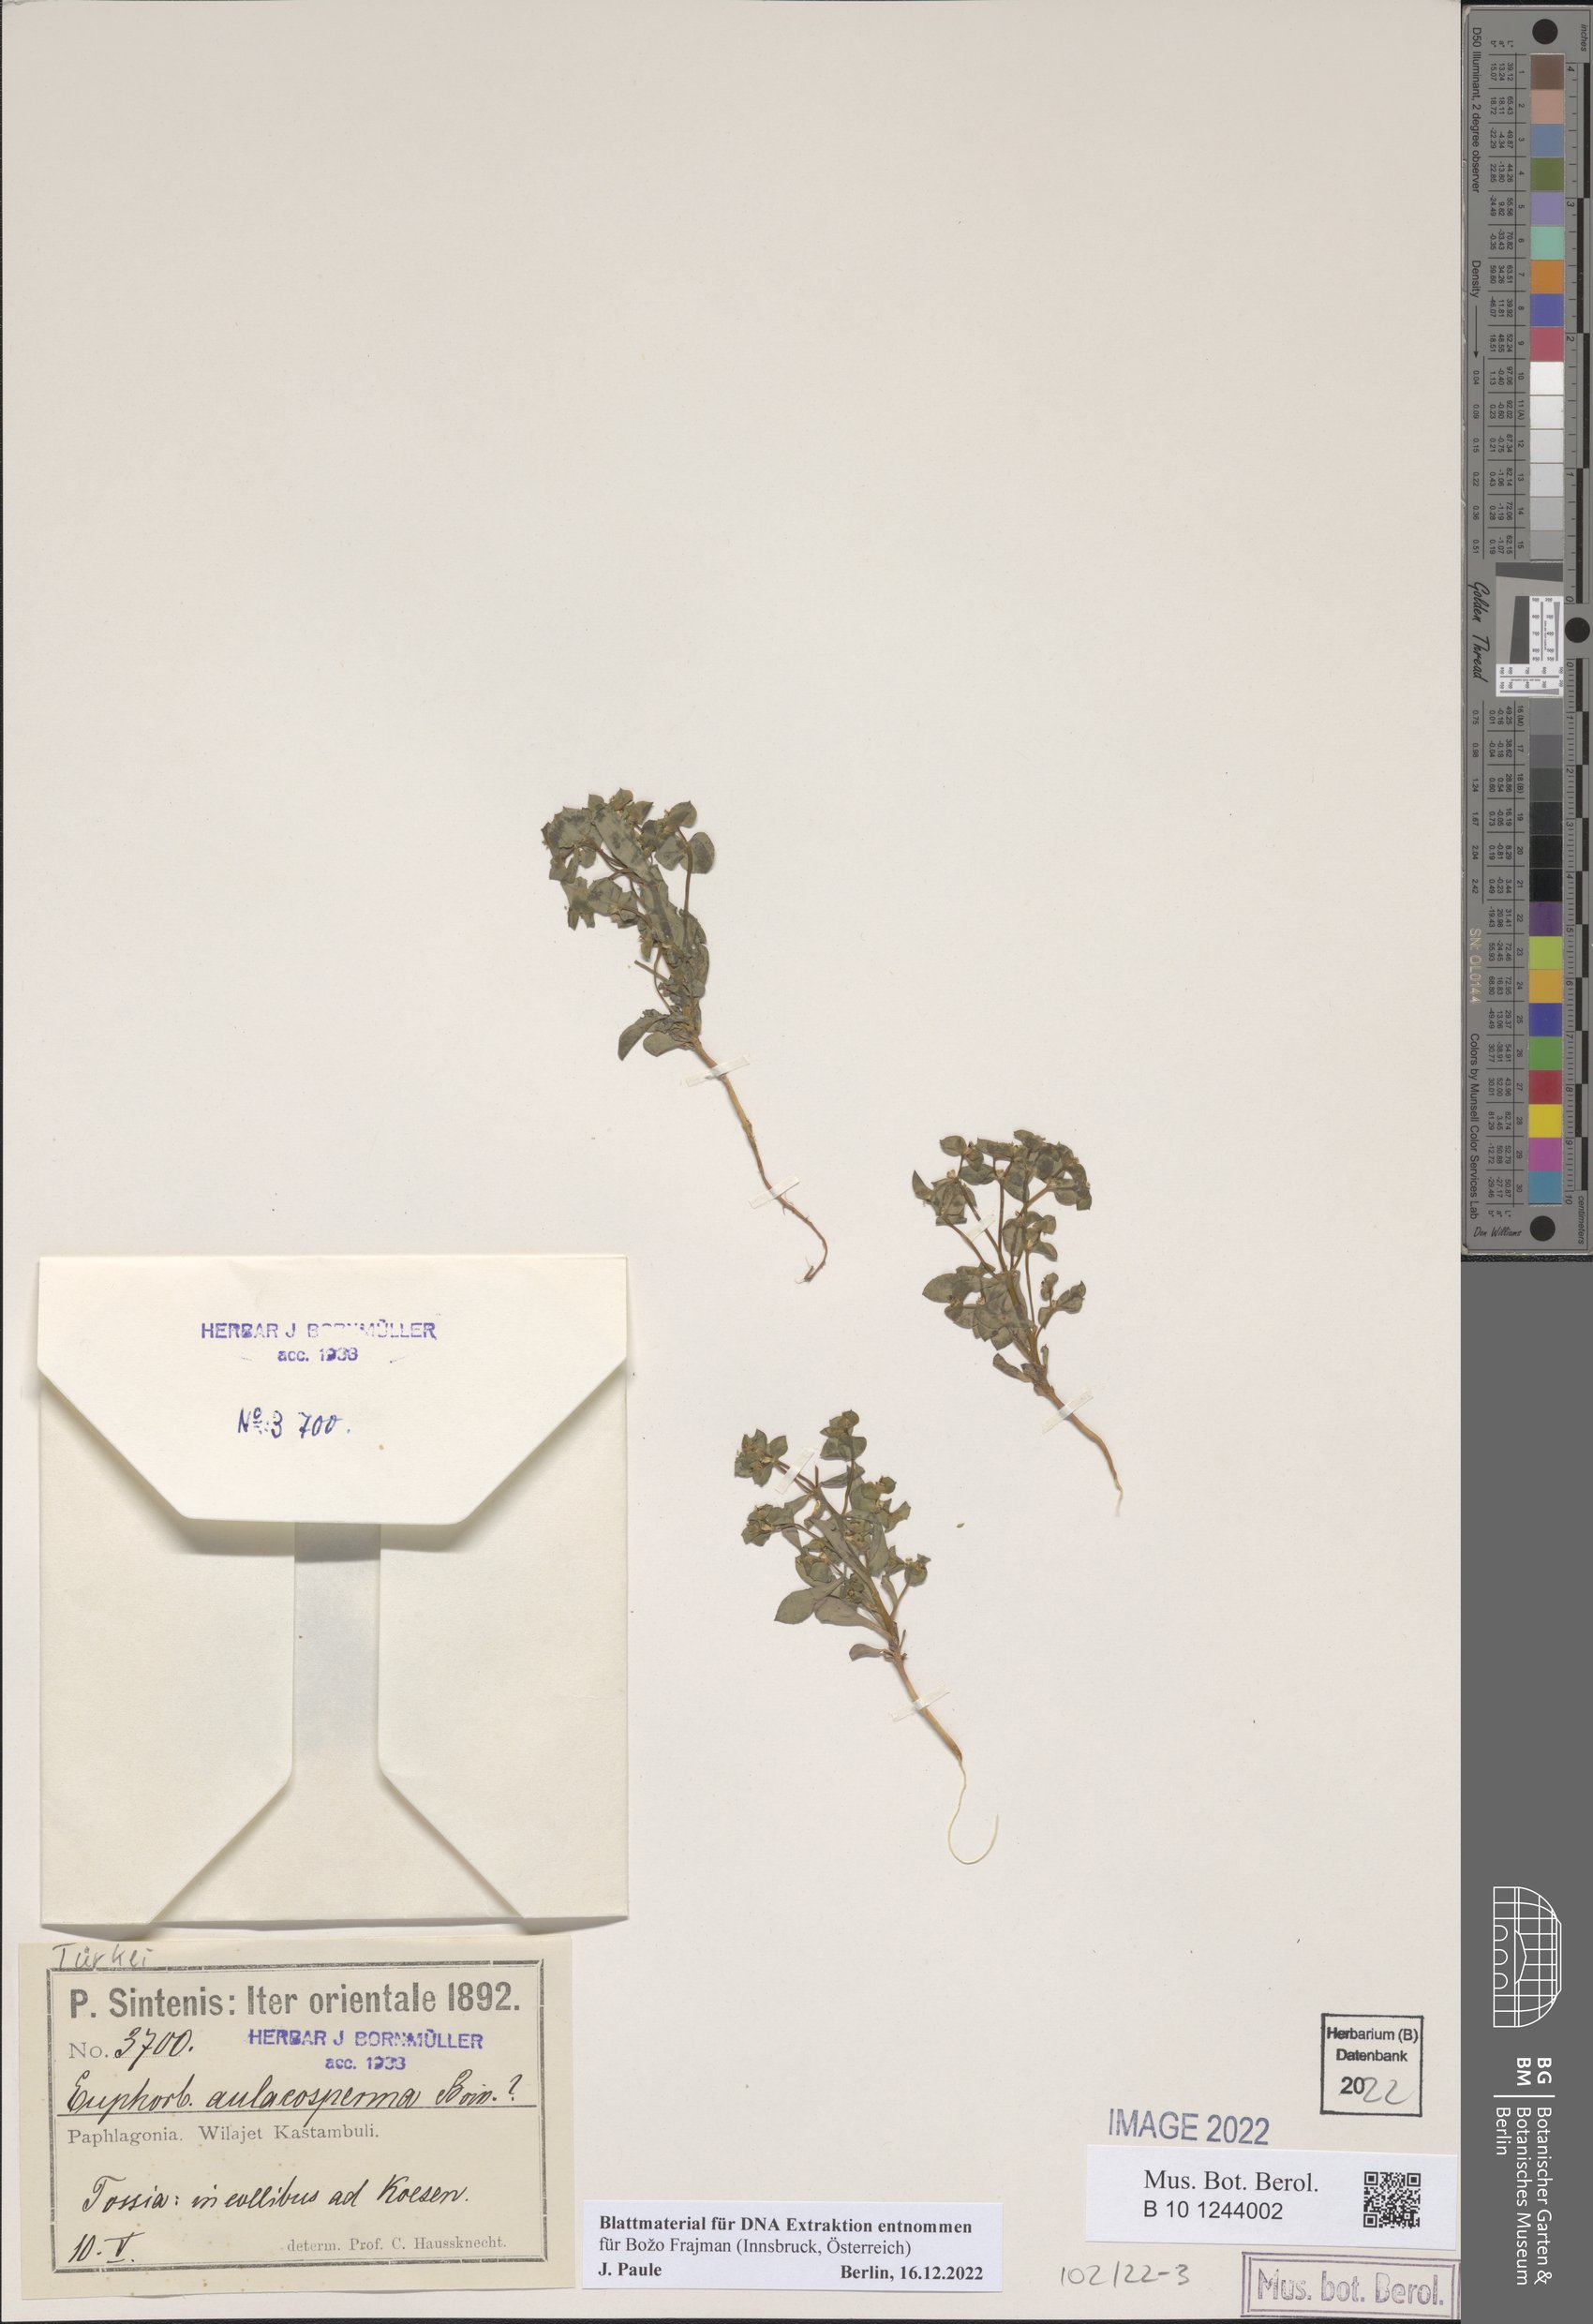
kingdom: Plantae
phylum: Tracheophyta
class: Magnoliopsida
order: Malpighiales
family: Euphorbiaceae
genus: Euphorbia
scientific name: Euphorbia aulacosperma
